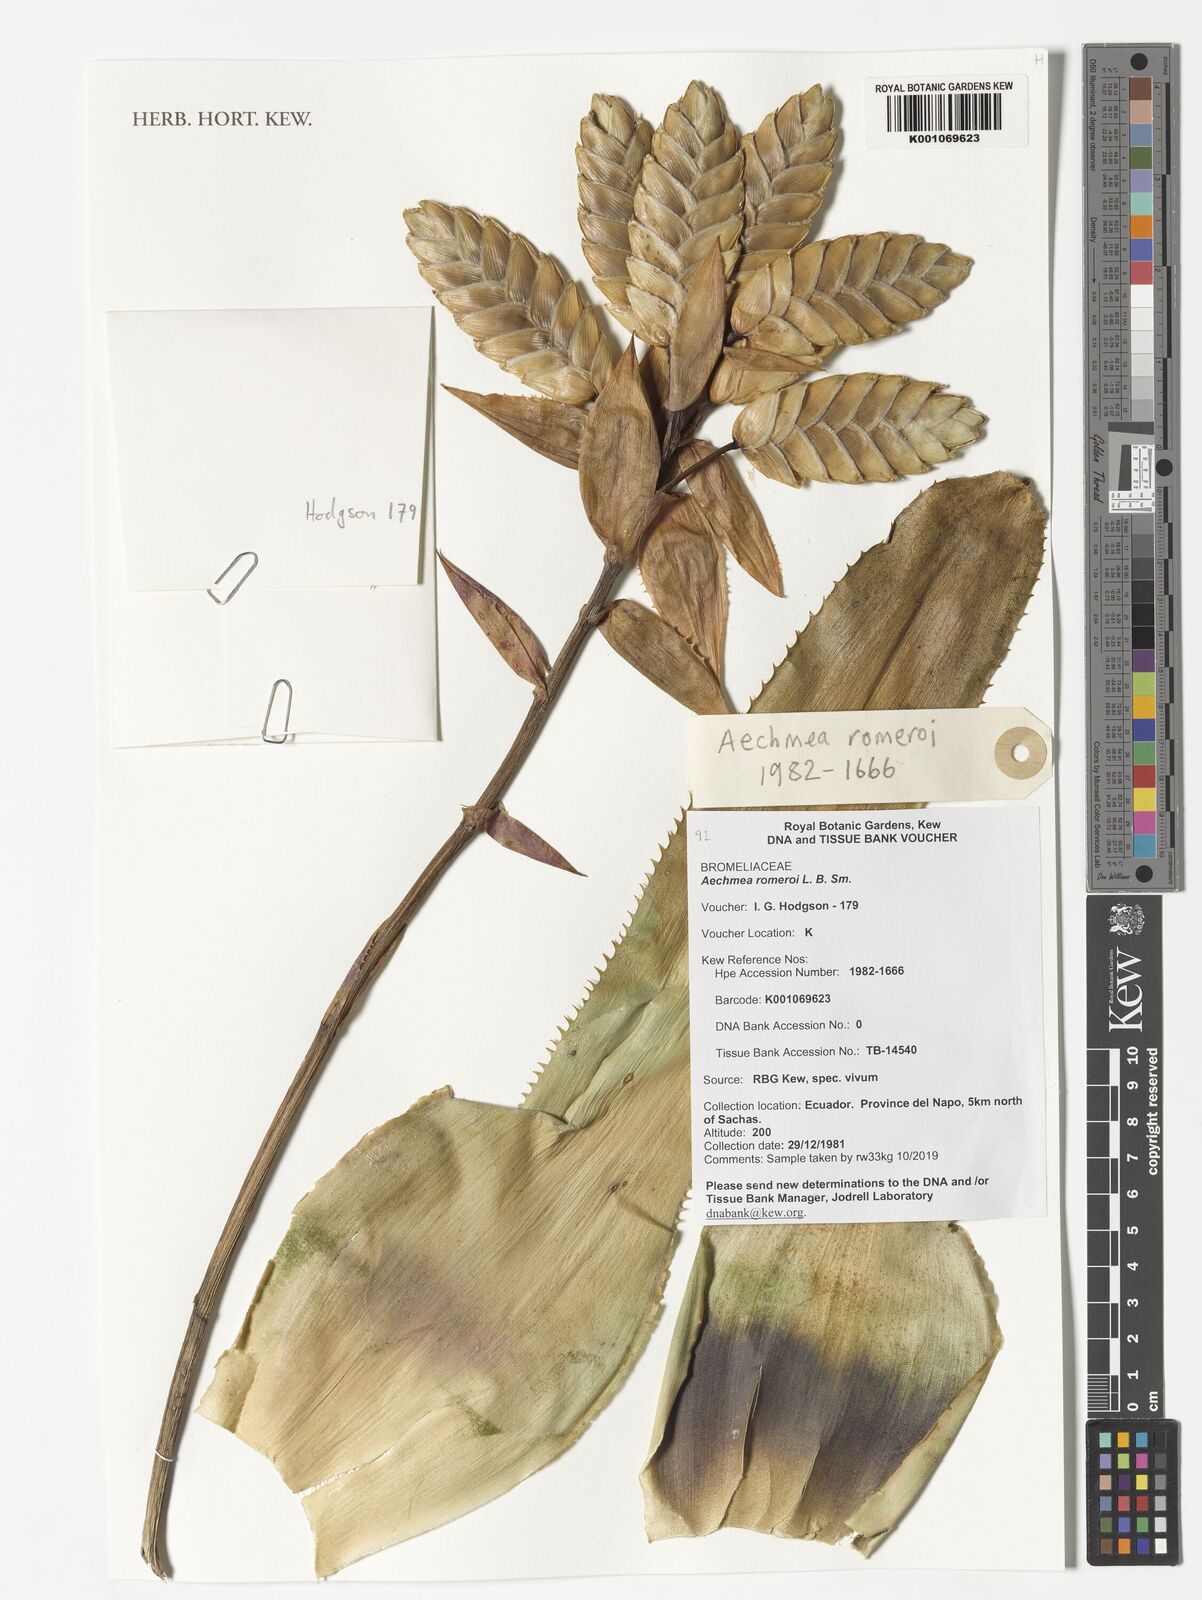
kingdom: Plantae
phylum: Tracheophyta
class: Liliopsida
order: Poales
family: Bromeliaceae
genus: Aechmea
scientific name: Aechmea romeroi
